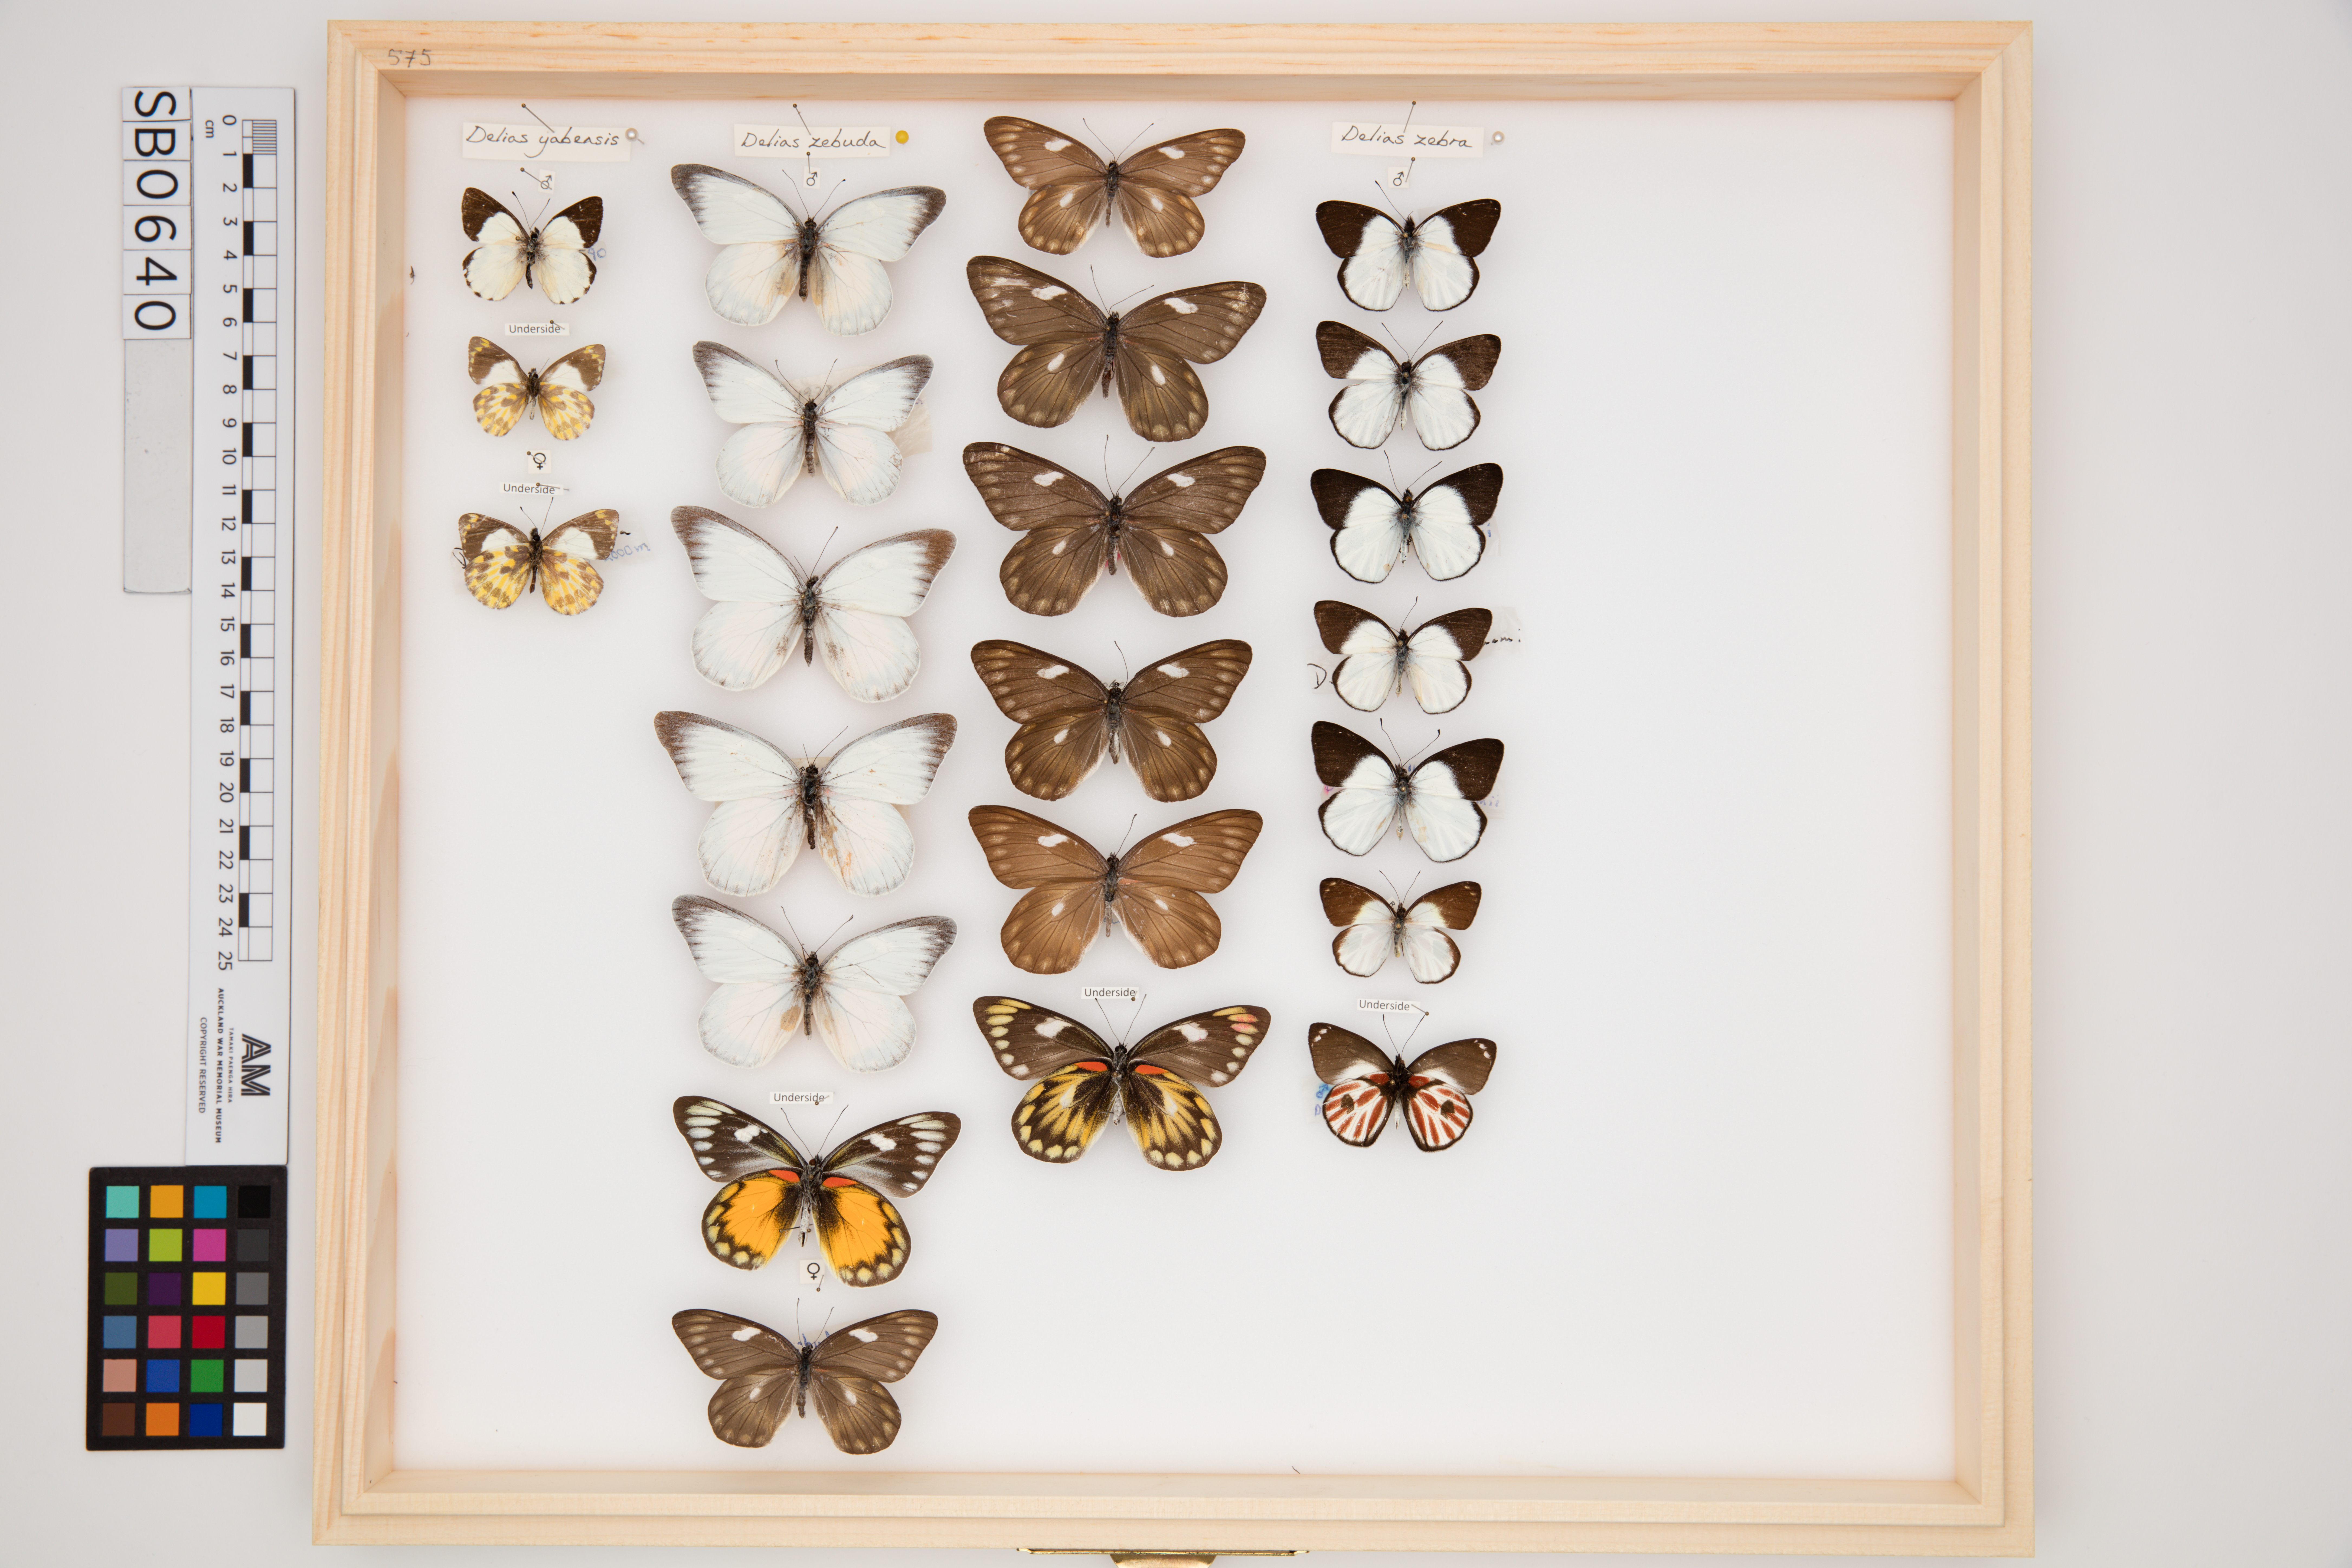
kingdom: Animalia
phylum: Arthropoda
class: Insecta
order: Lepidoptera
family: Pieridae
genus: Delias
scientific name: Delias zebuda
